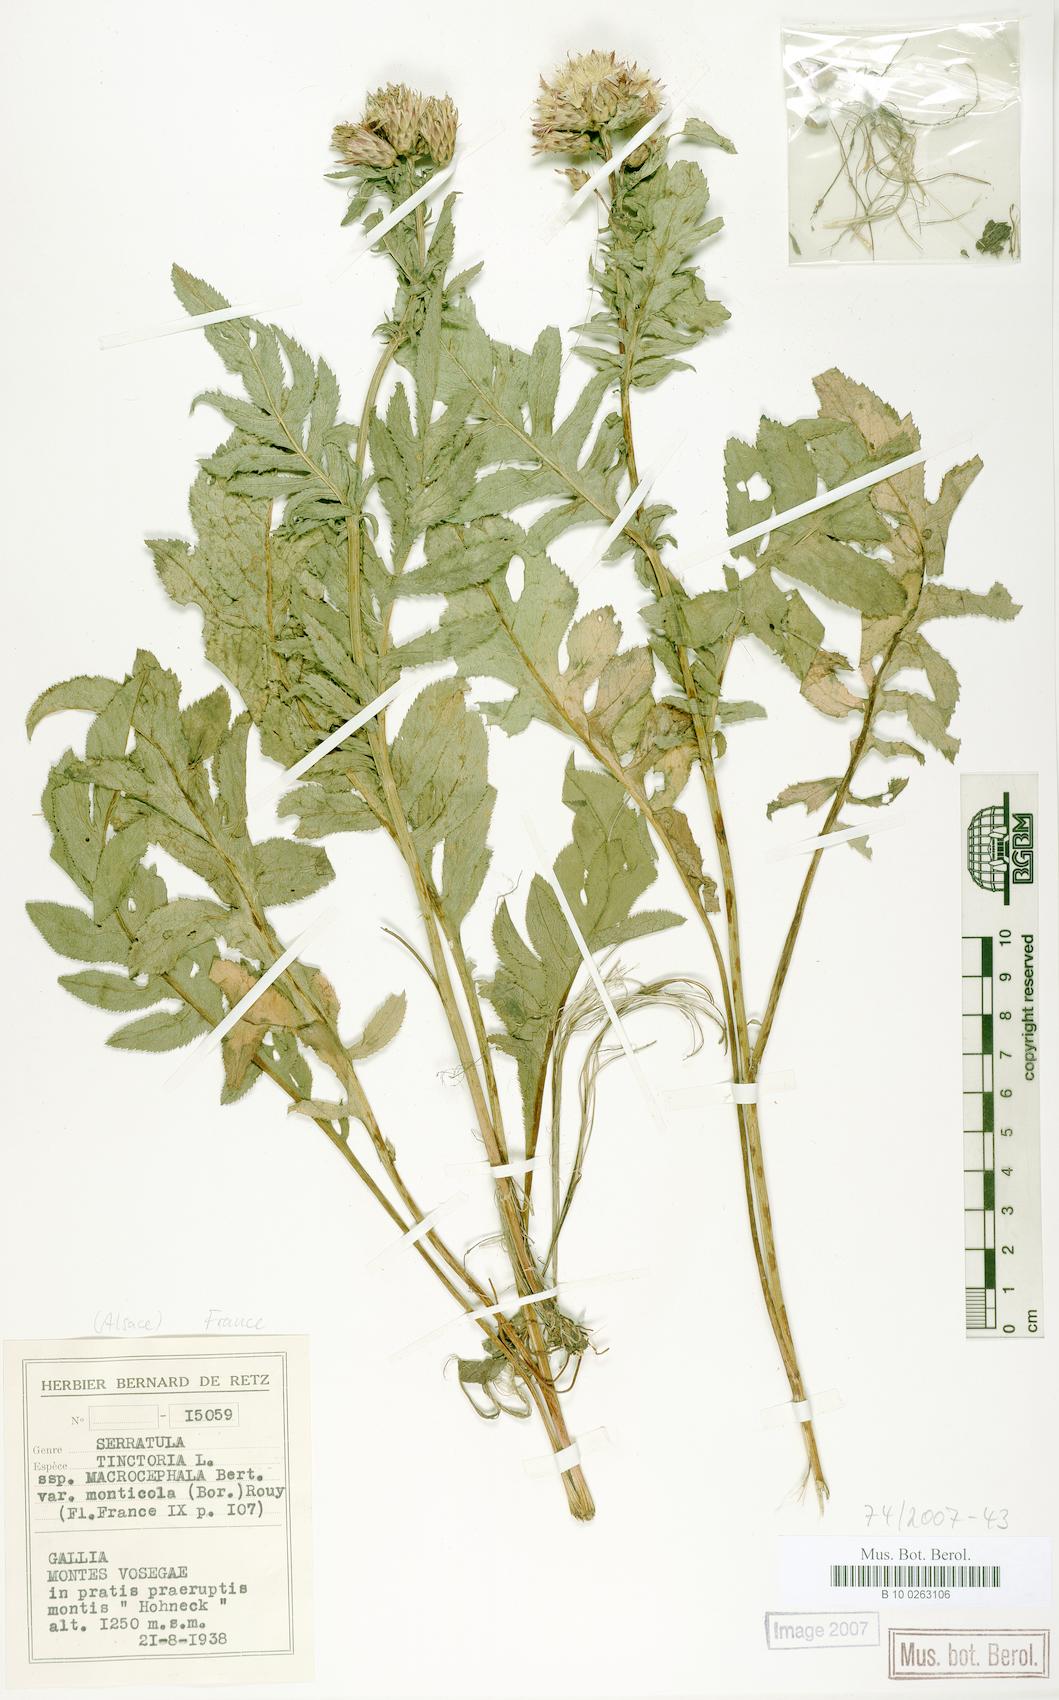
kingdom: Plantae
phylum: Tracheophyta
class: Magnoliopsida
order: Asterales
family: Asteraceae
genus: Serratula
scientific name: Serratula tinctoria
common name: Saw-wort
